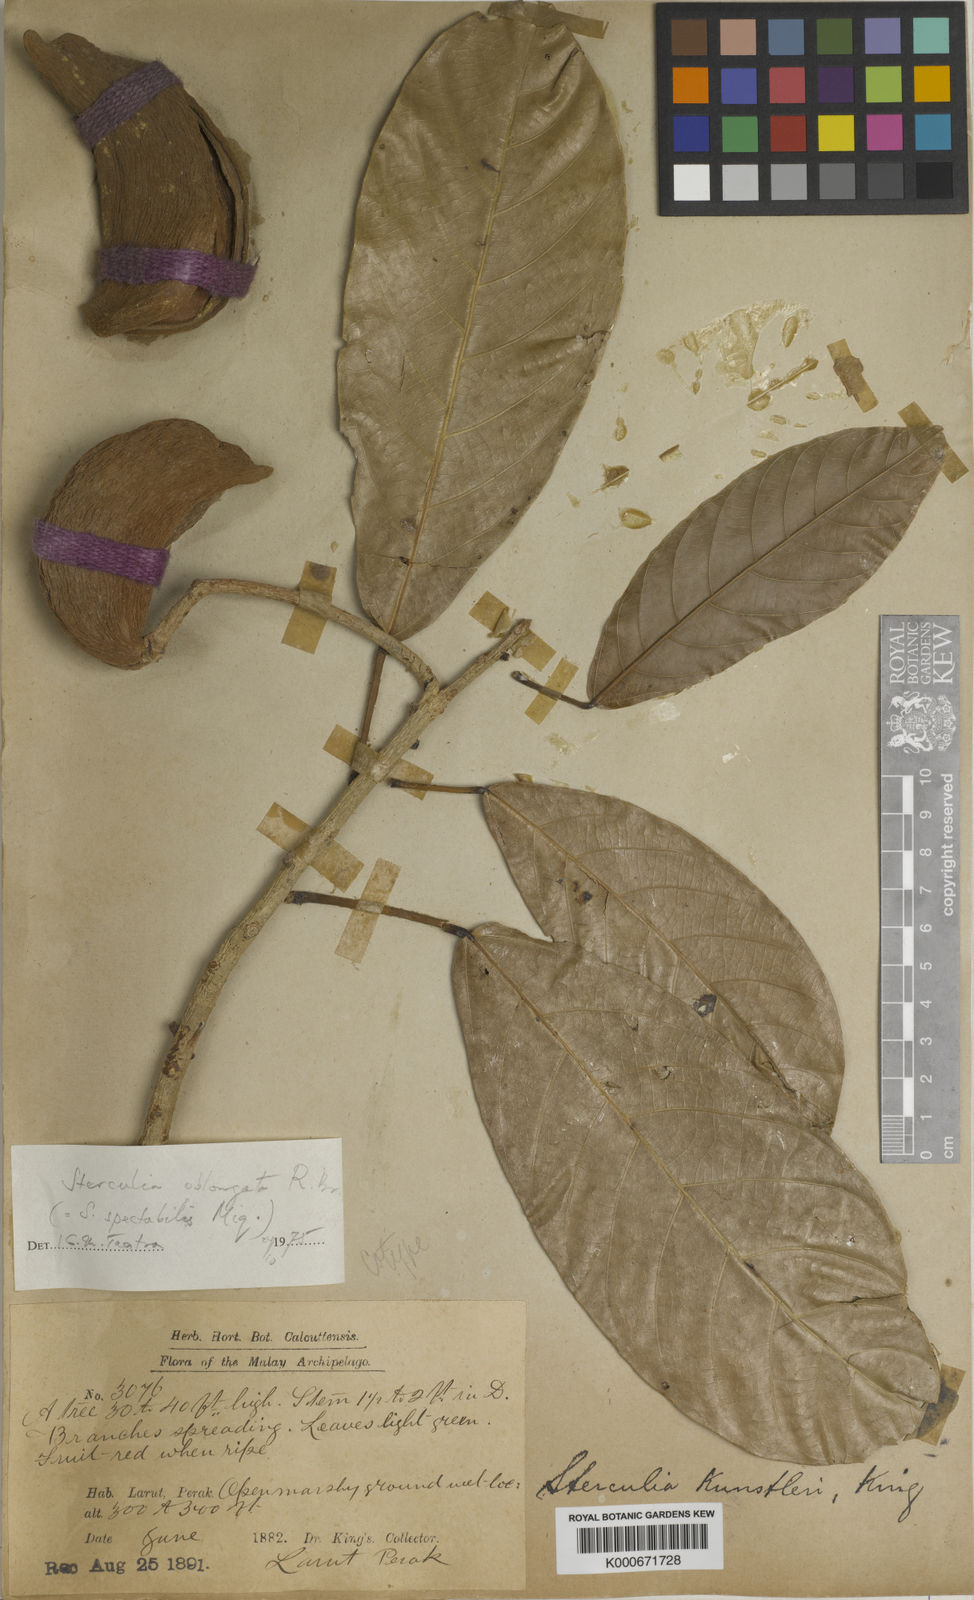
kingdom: Plantae
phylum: Tracheophyta
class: Magnoliopsida
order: Malvales
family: Malvaceae
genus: Sterculia
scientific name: Sterculia oblongata
